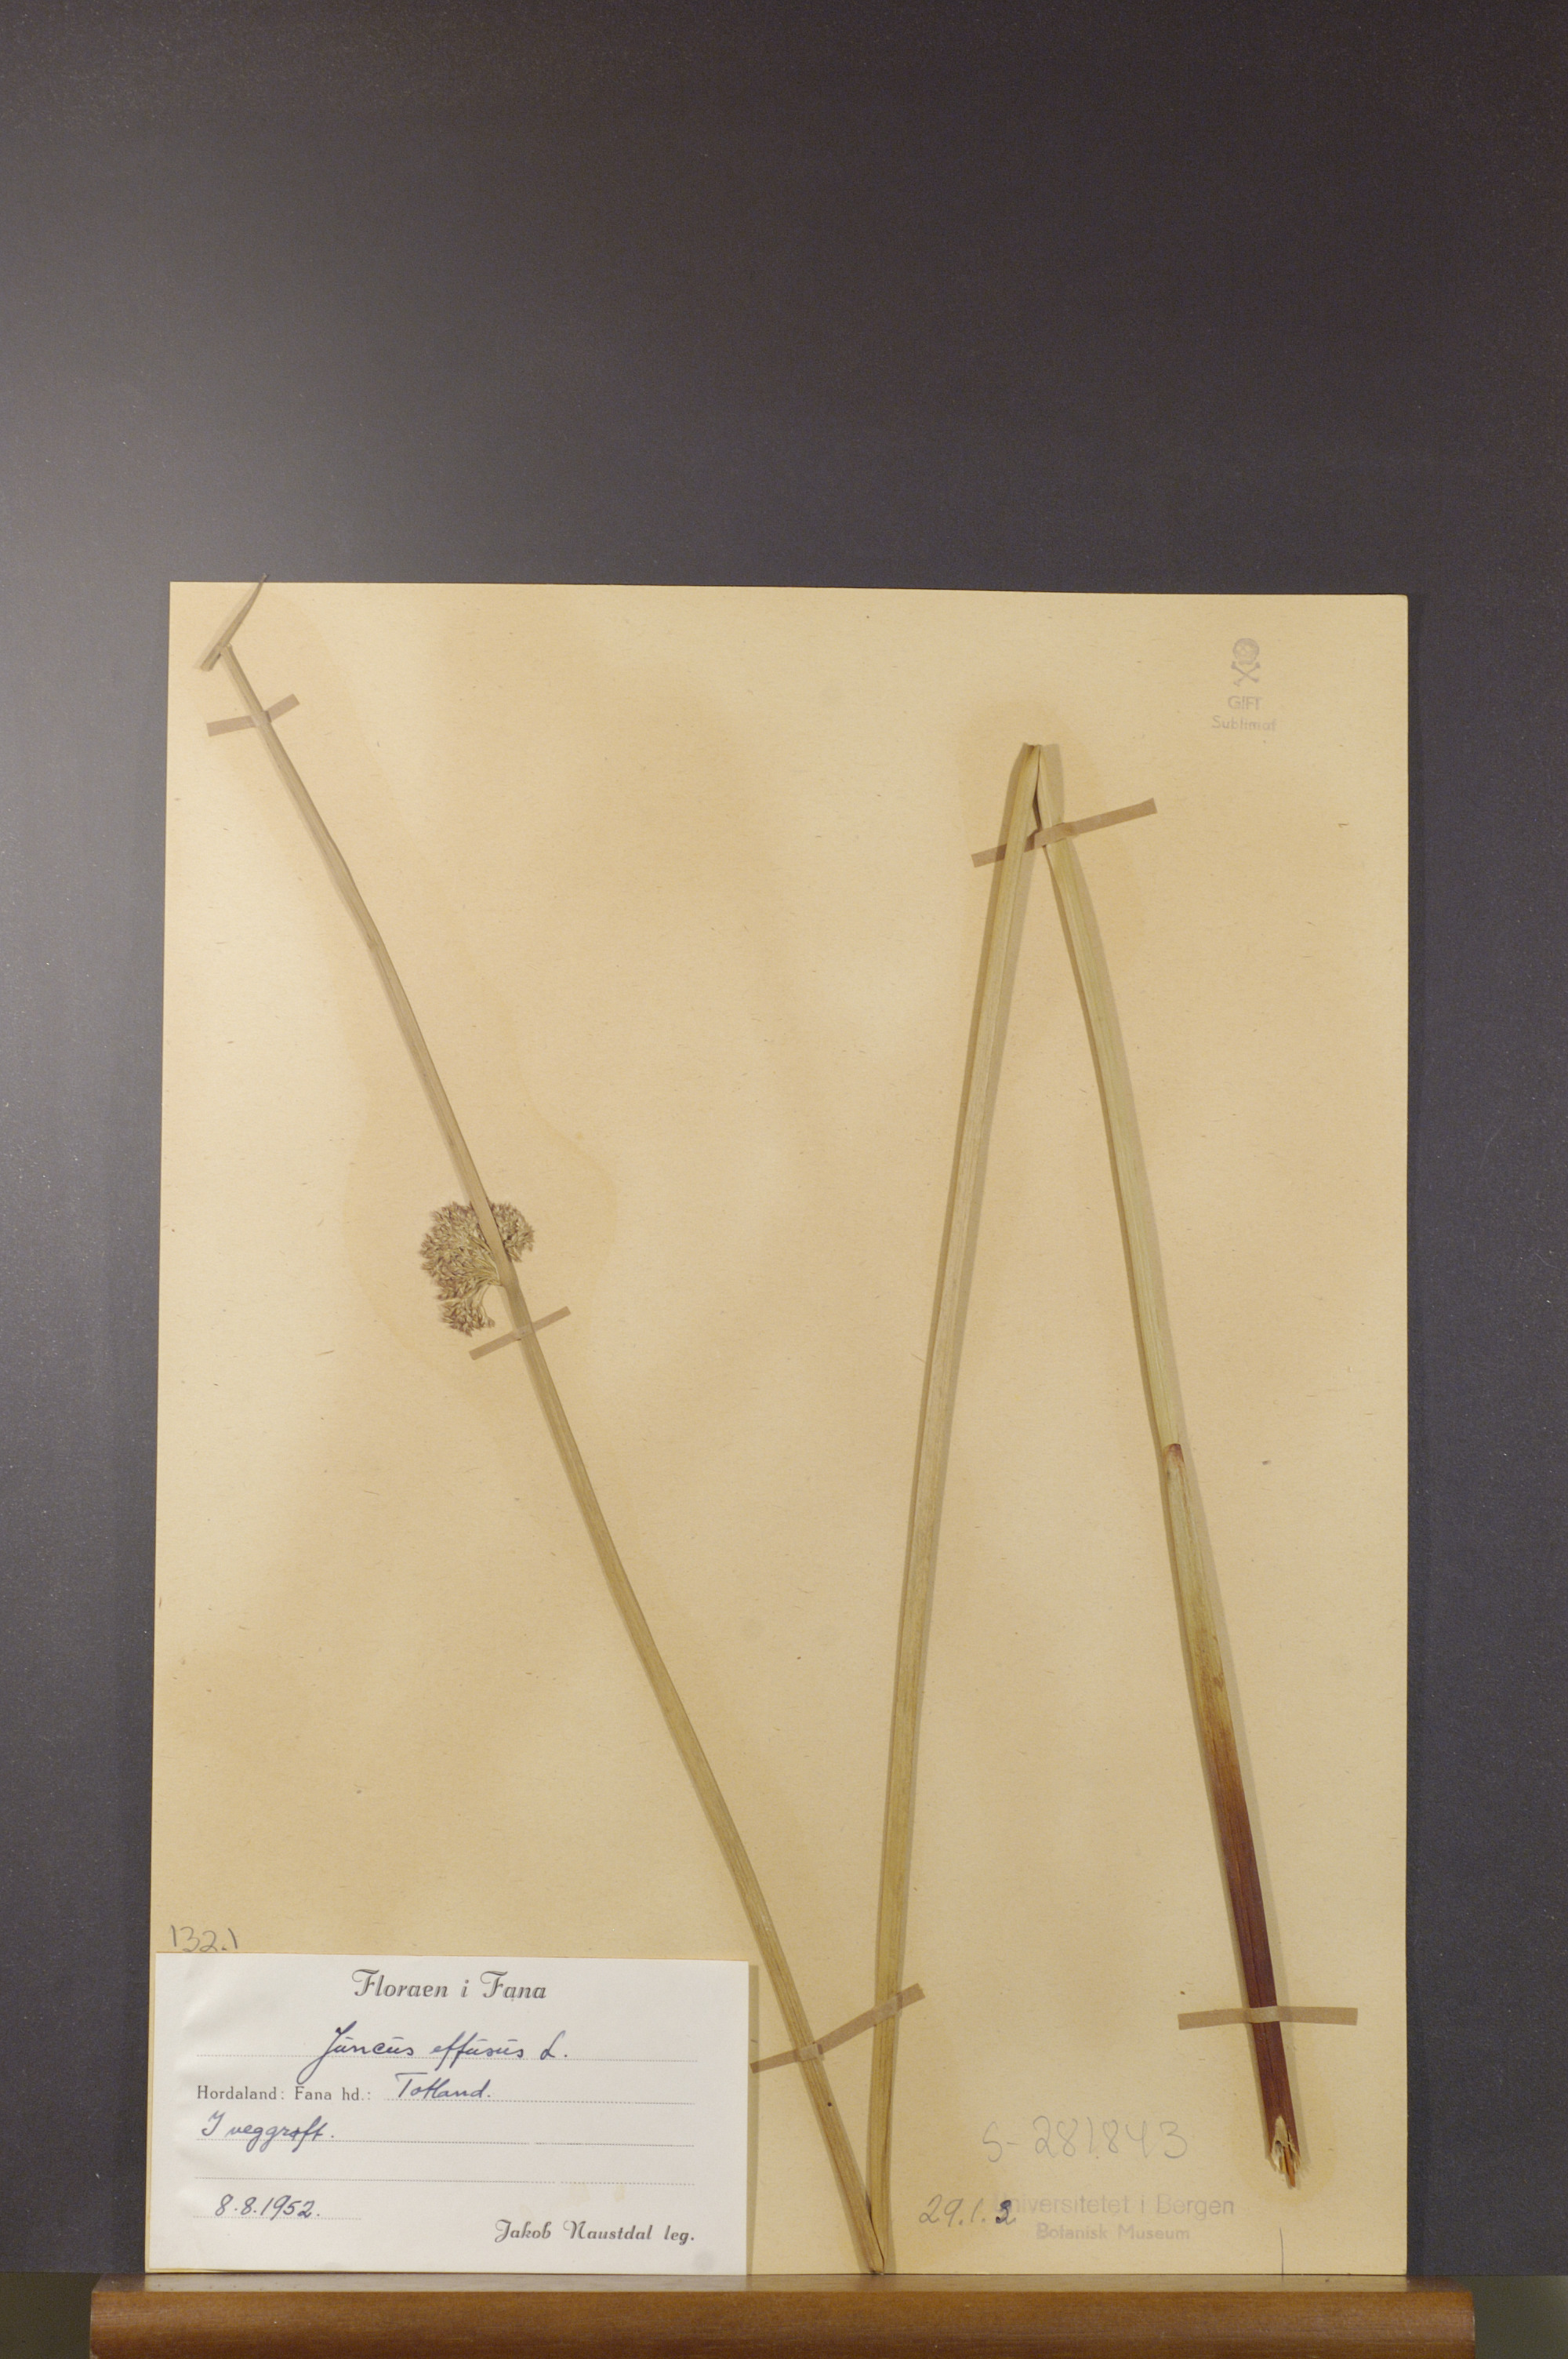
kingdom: Plantae
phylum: Tracheophyta
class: Liliopsida
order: Poales
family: Juncaceae
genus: Juncus
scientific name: Juncus effusus
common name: Soft rush
